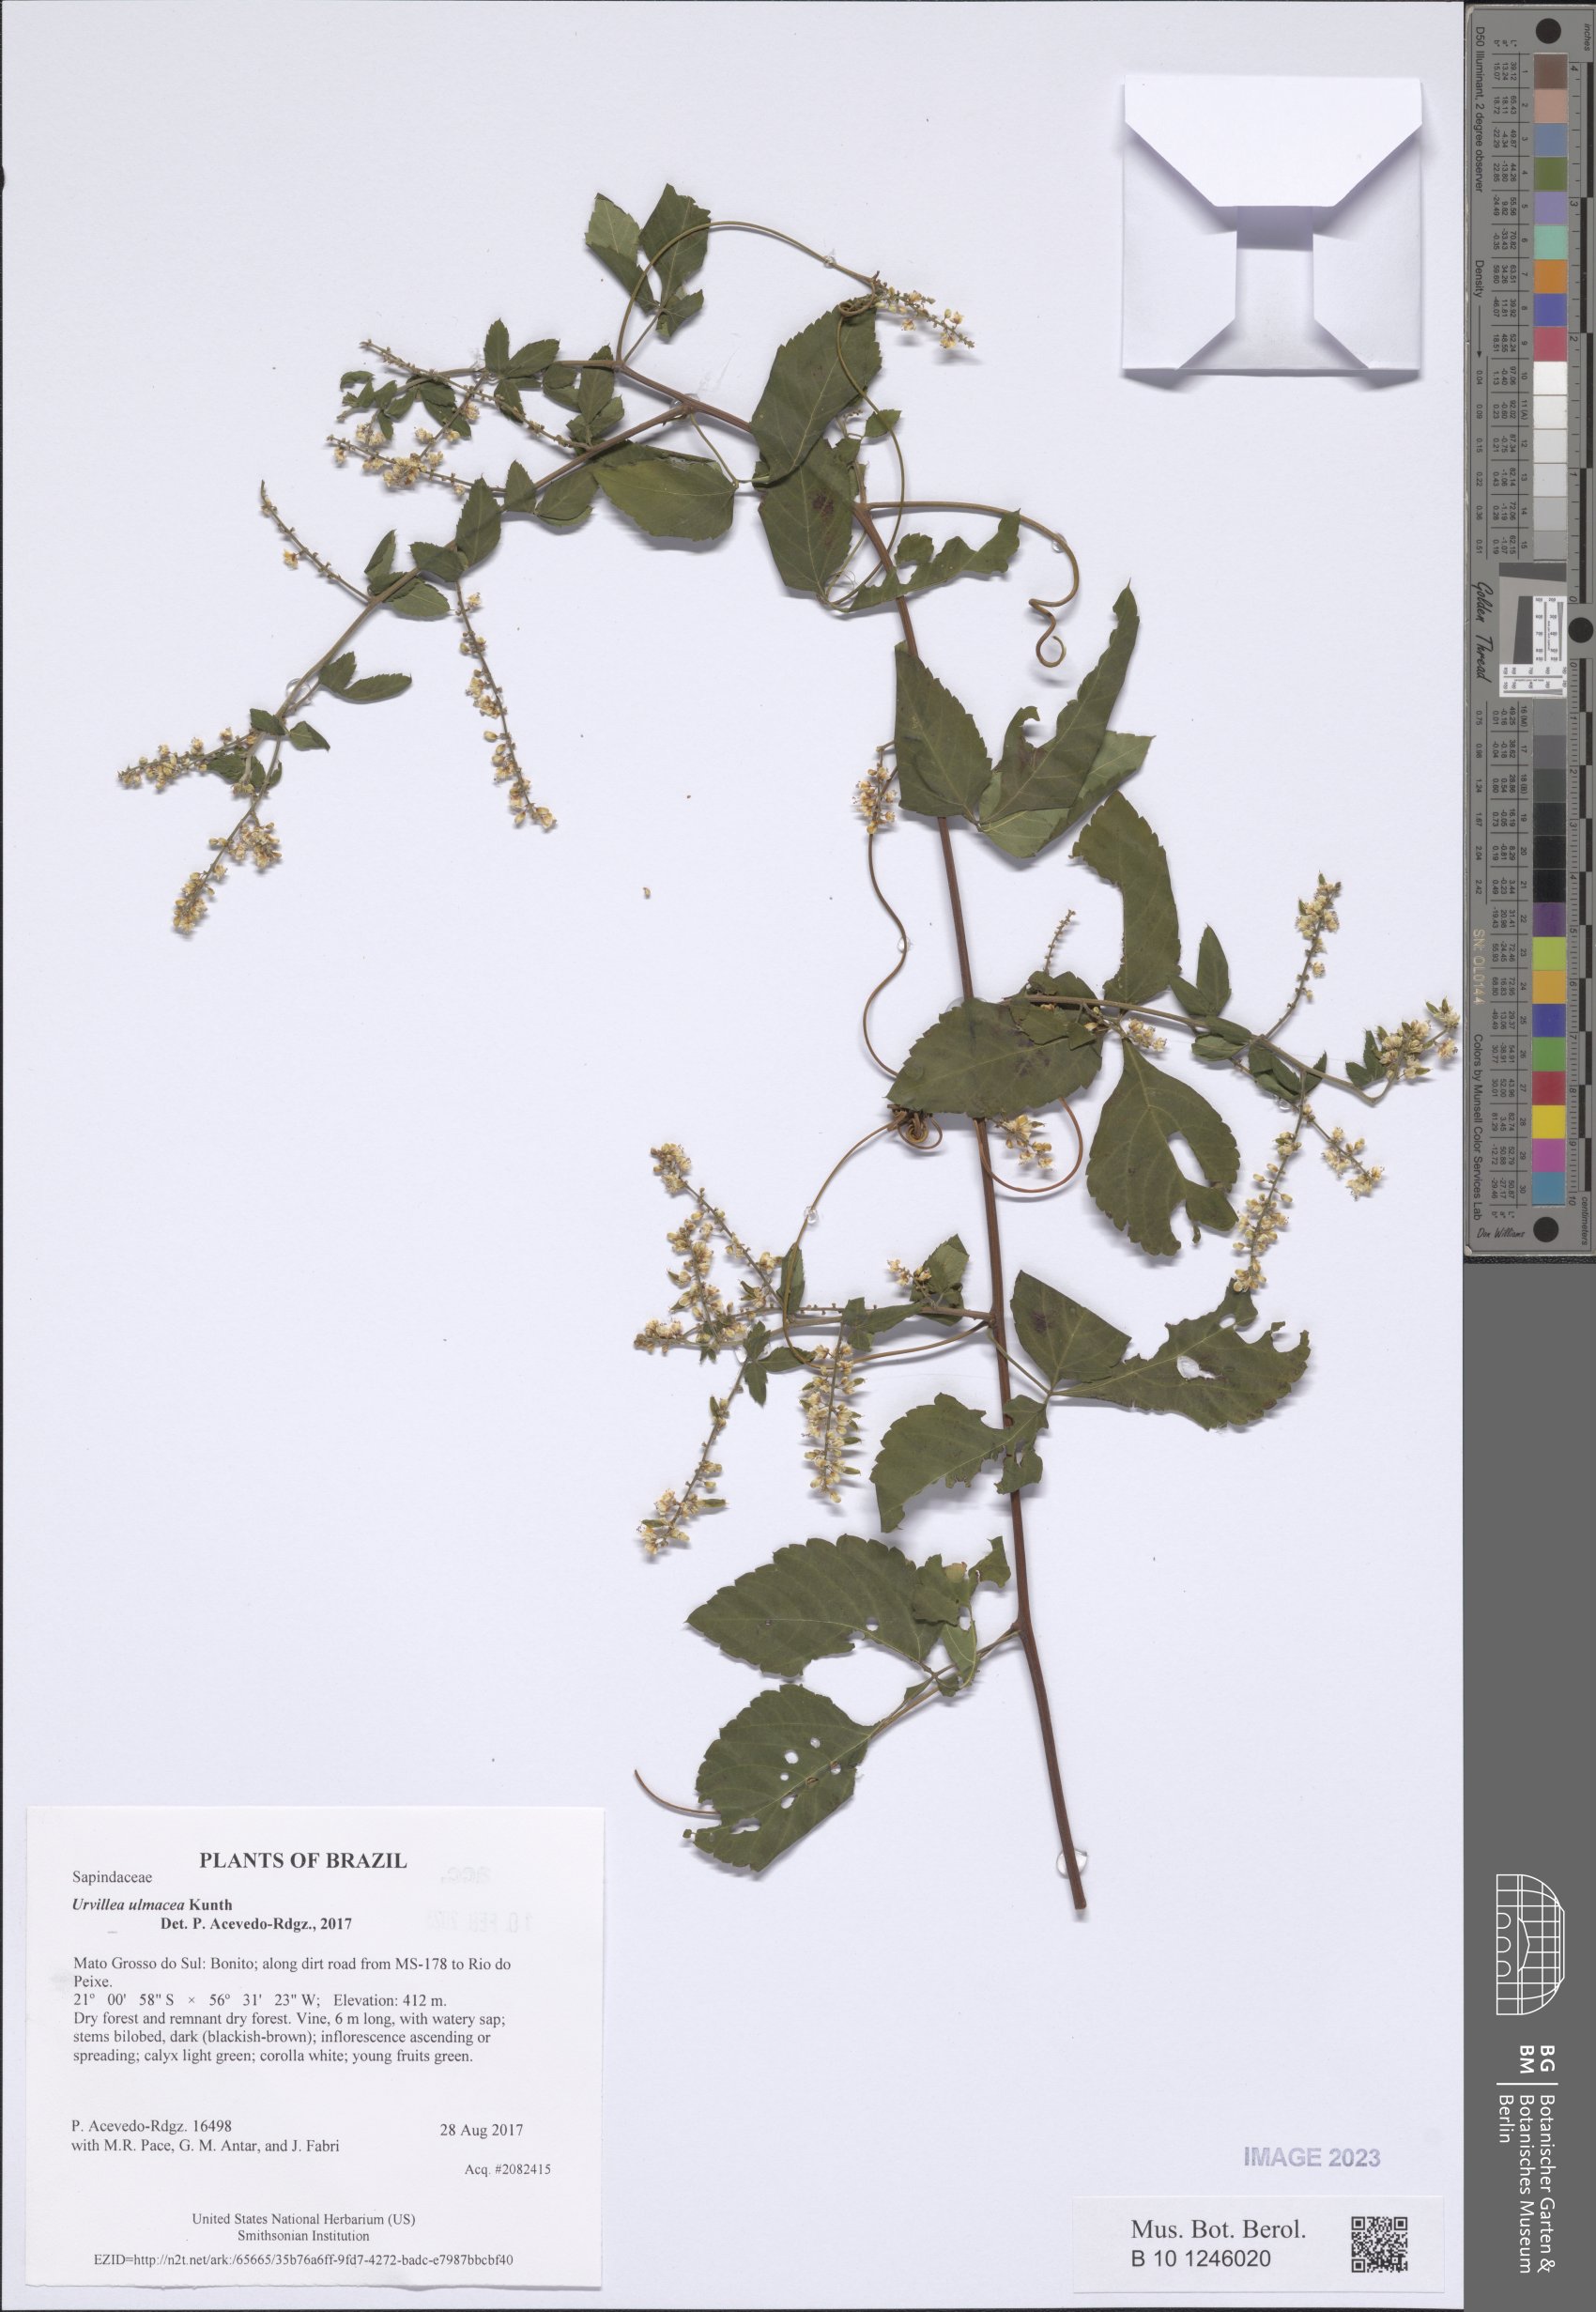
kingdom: Plantae
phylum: Tracheophyta
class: Magnoliopsida
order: Sapindales
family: Sapindaceae
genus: Urvillea
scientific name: Urvillea ulmacea
